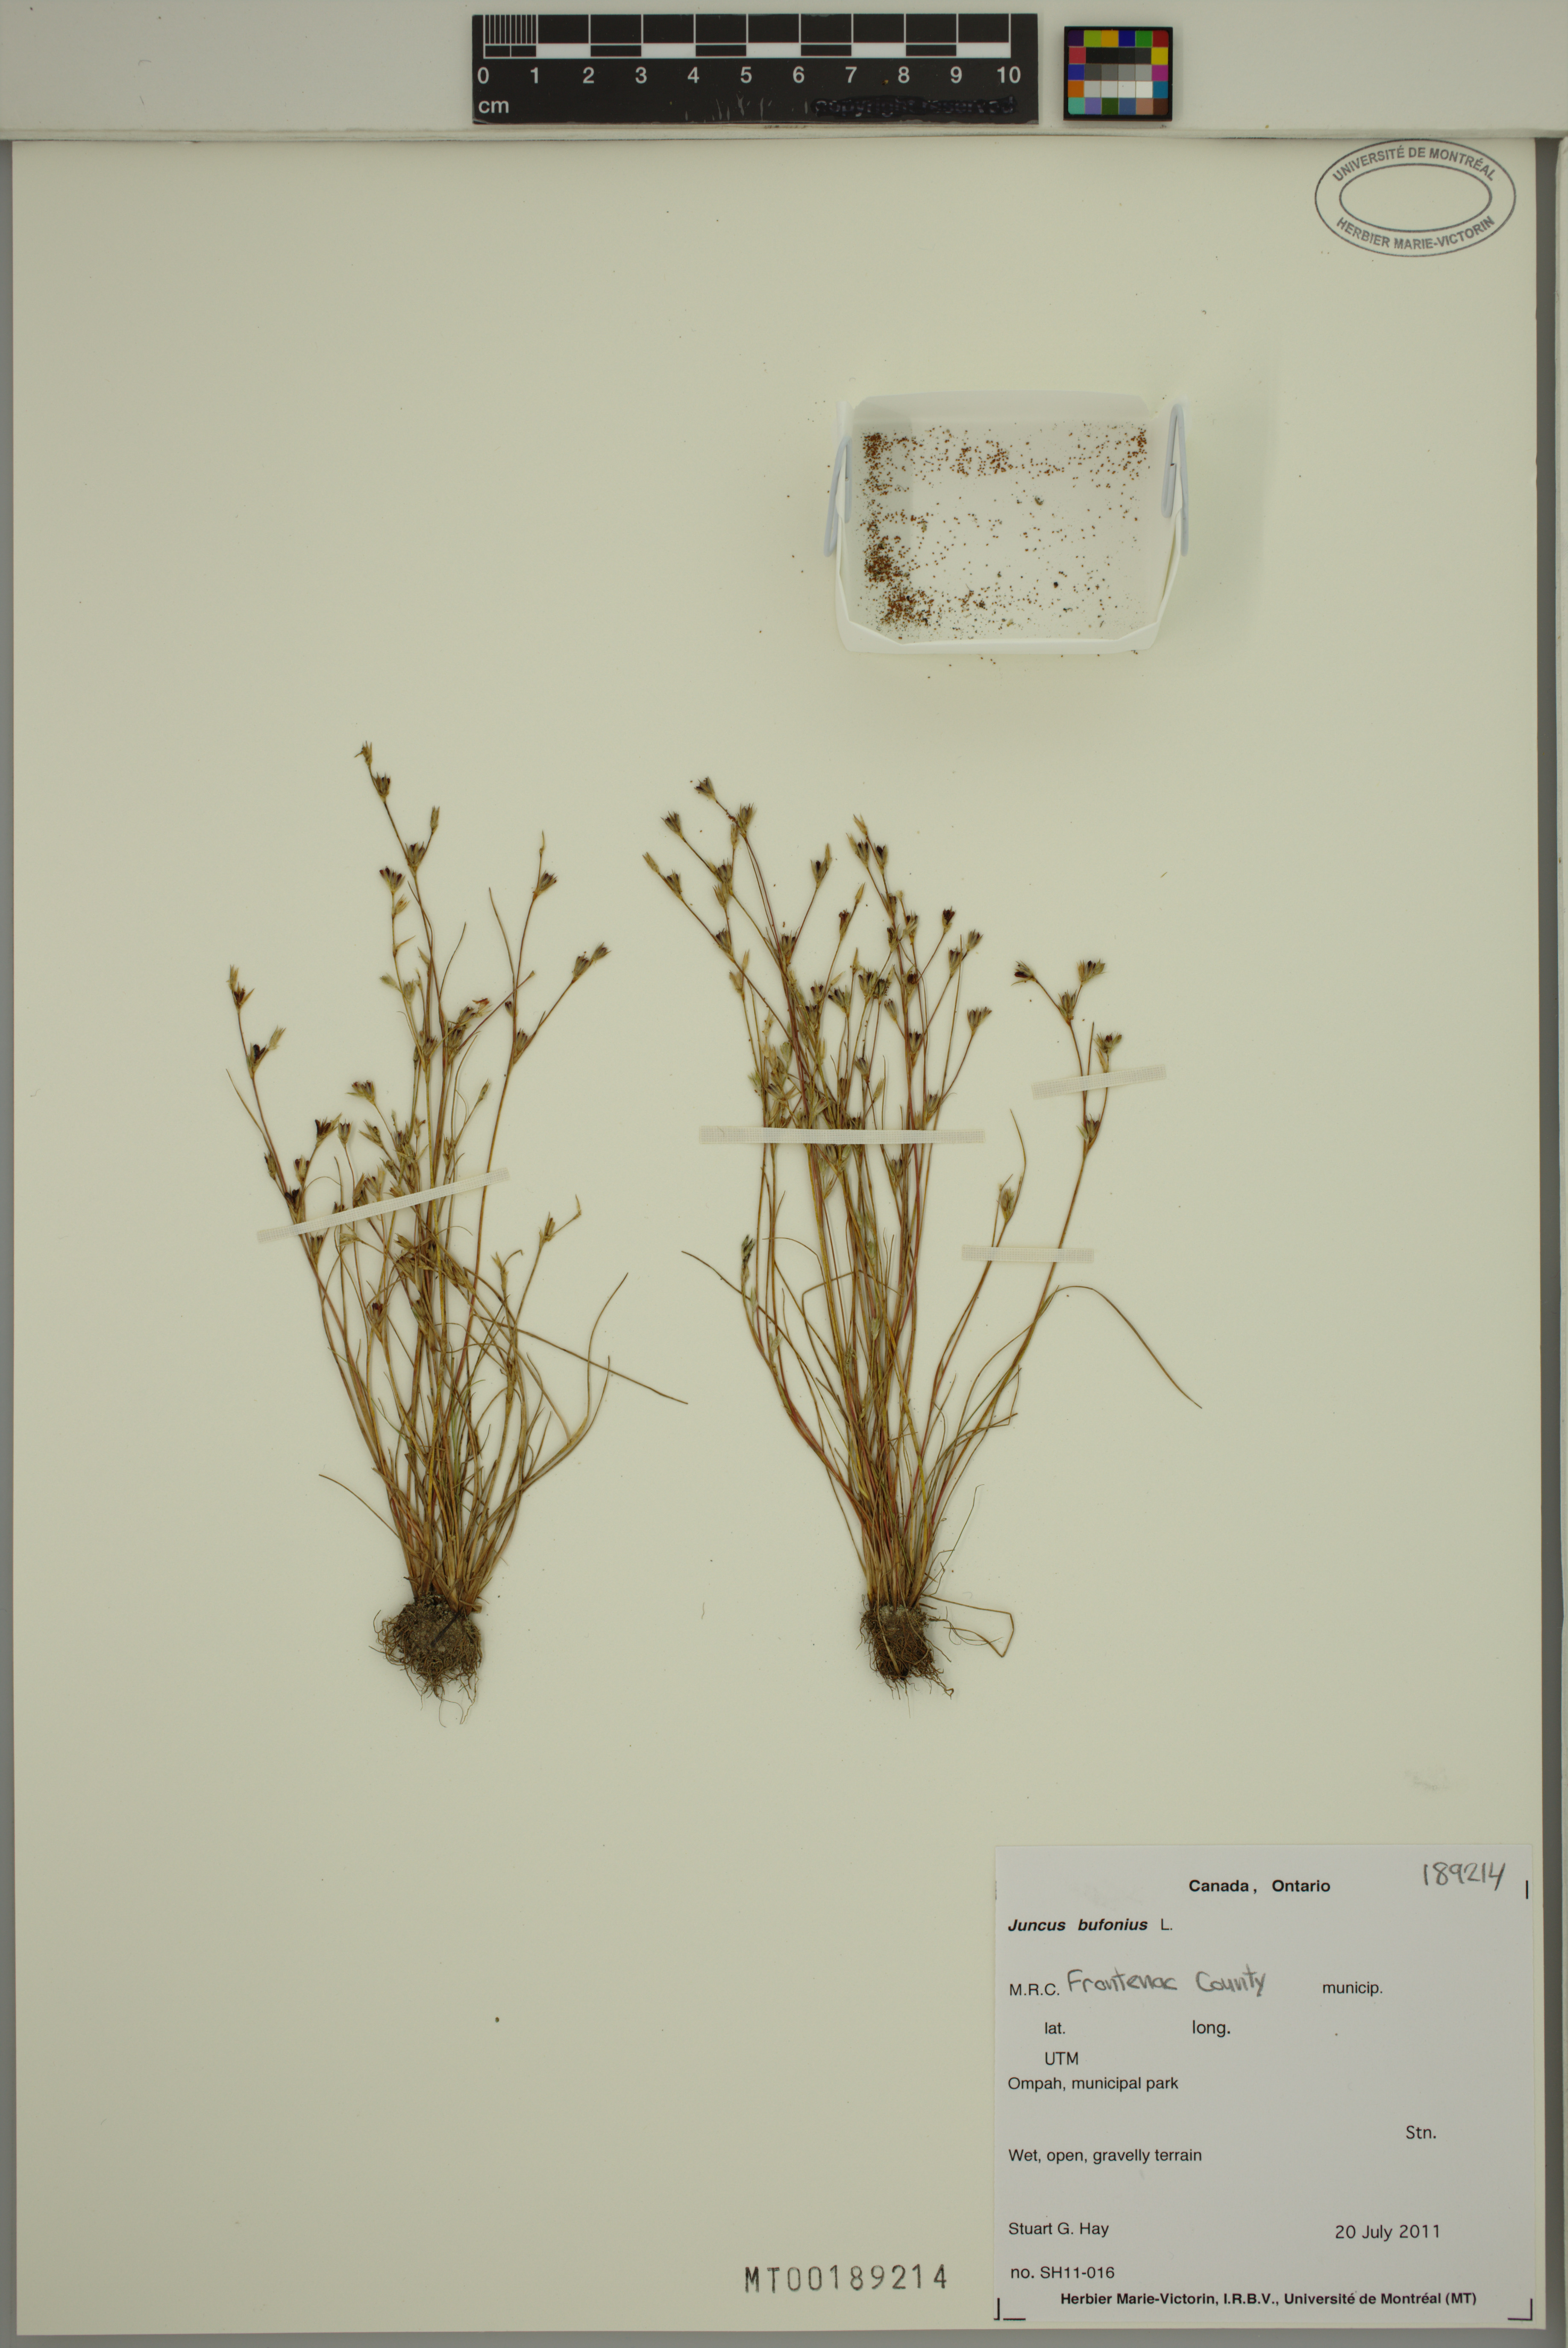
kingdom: Plantae
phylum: Tracheophyta
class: Liliopsida
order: Poales
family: Juncaceae
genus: Juncus
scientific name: Juncus bufonius
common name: Toad rush
